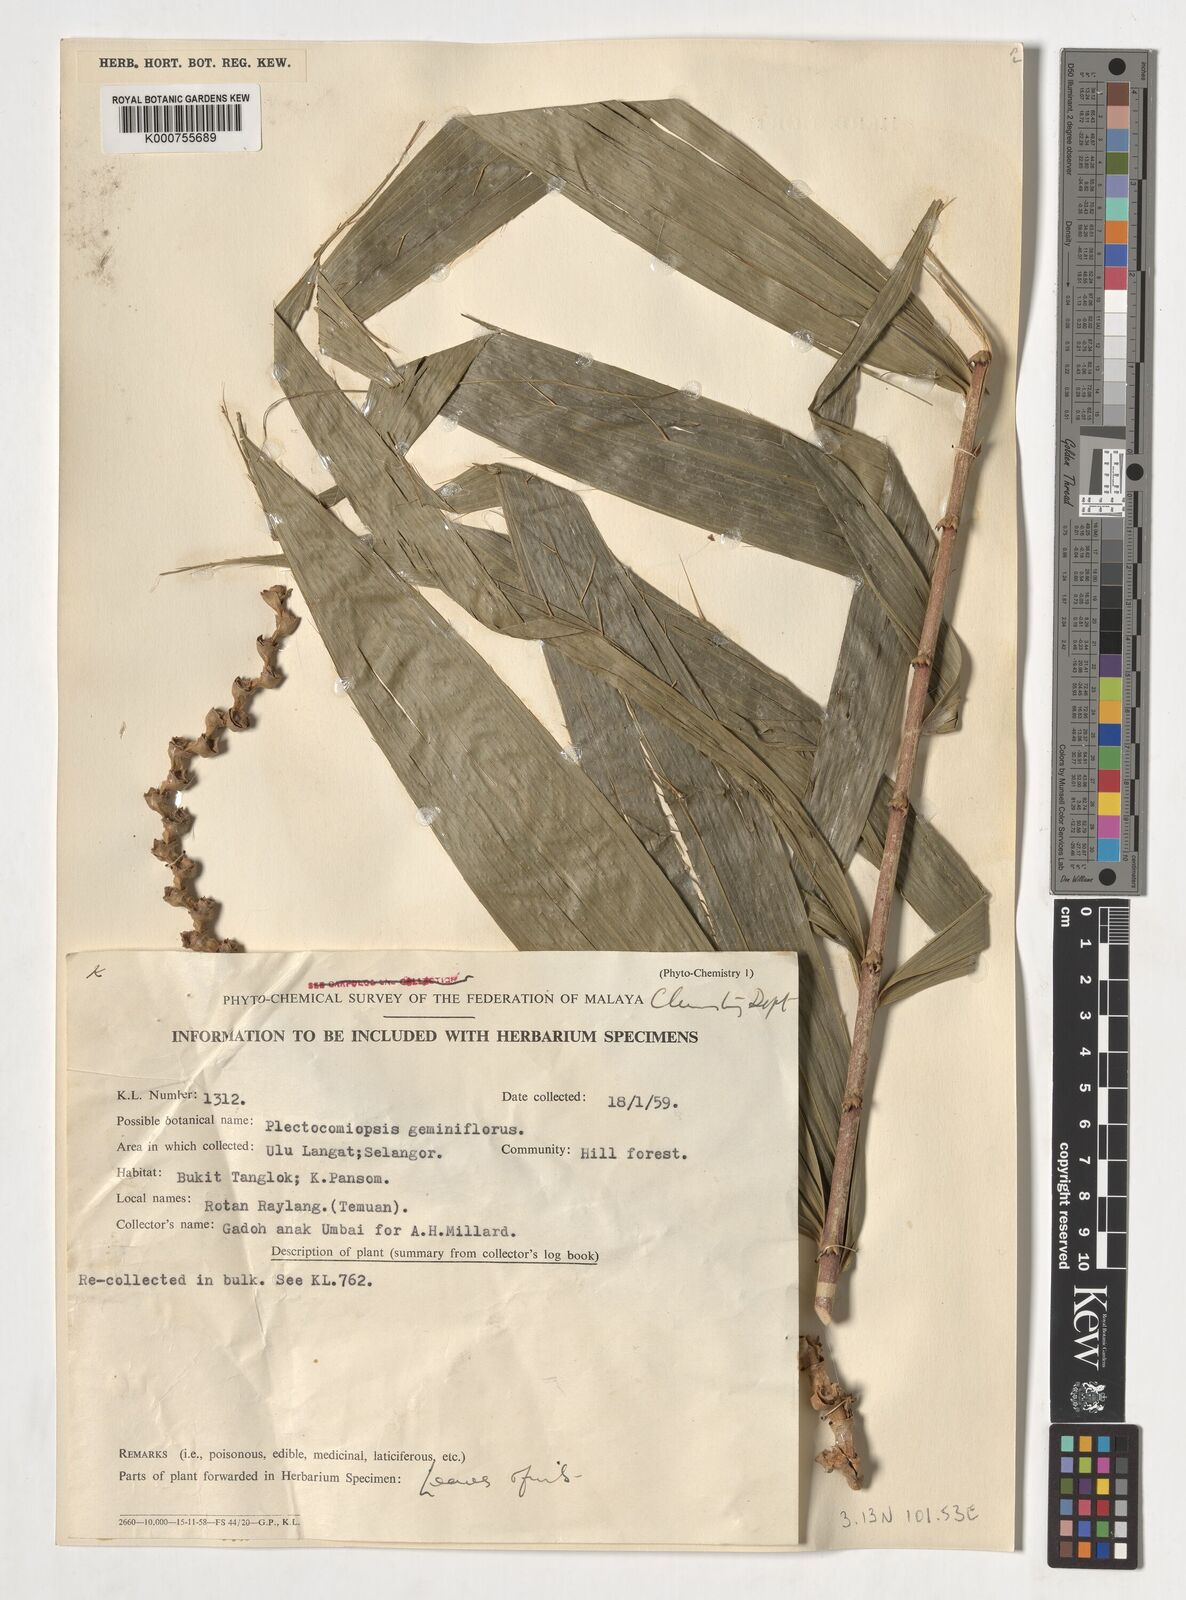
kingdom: Plantae
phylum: Tracheophyta
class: Liliopsida
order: Arecales
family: Arecaceae
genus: Plectocomiopsis
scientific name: Plectocomiopsis geminiflora
